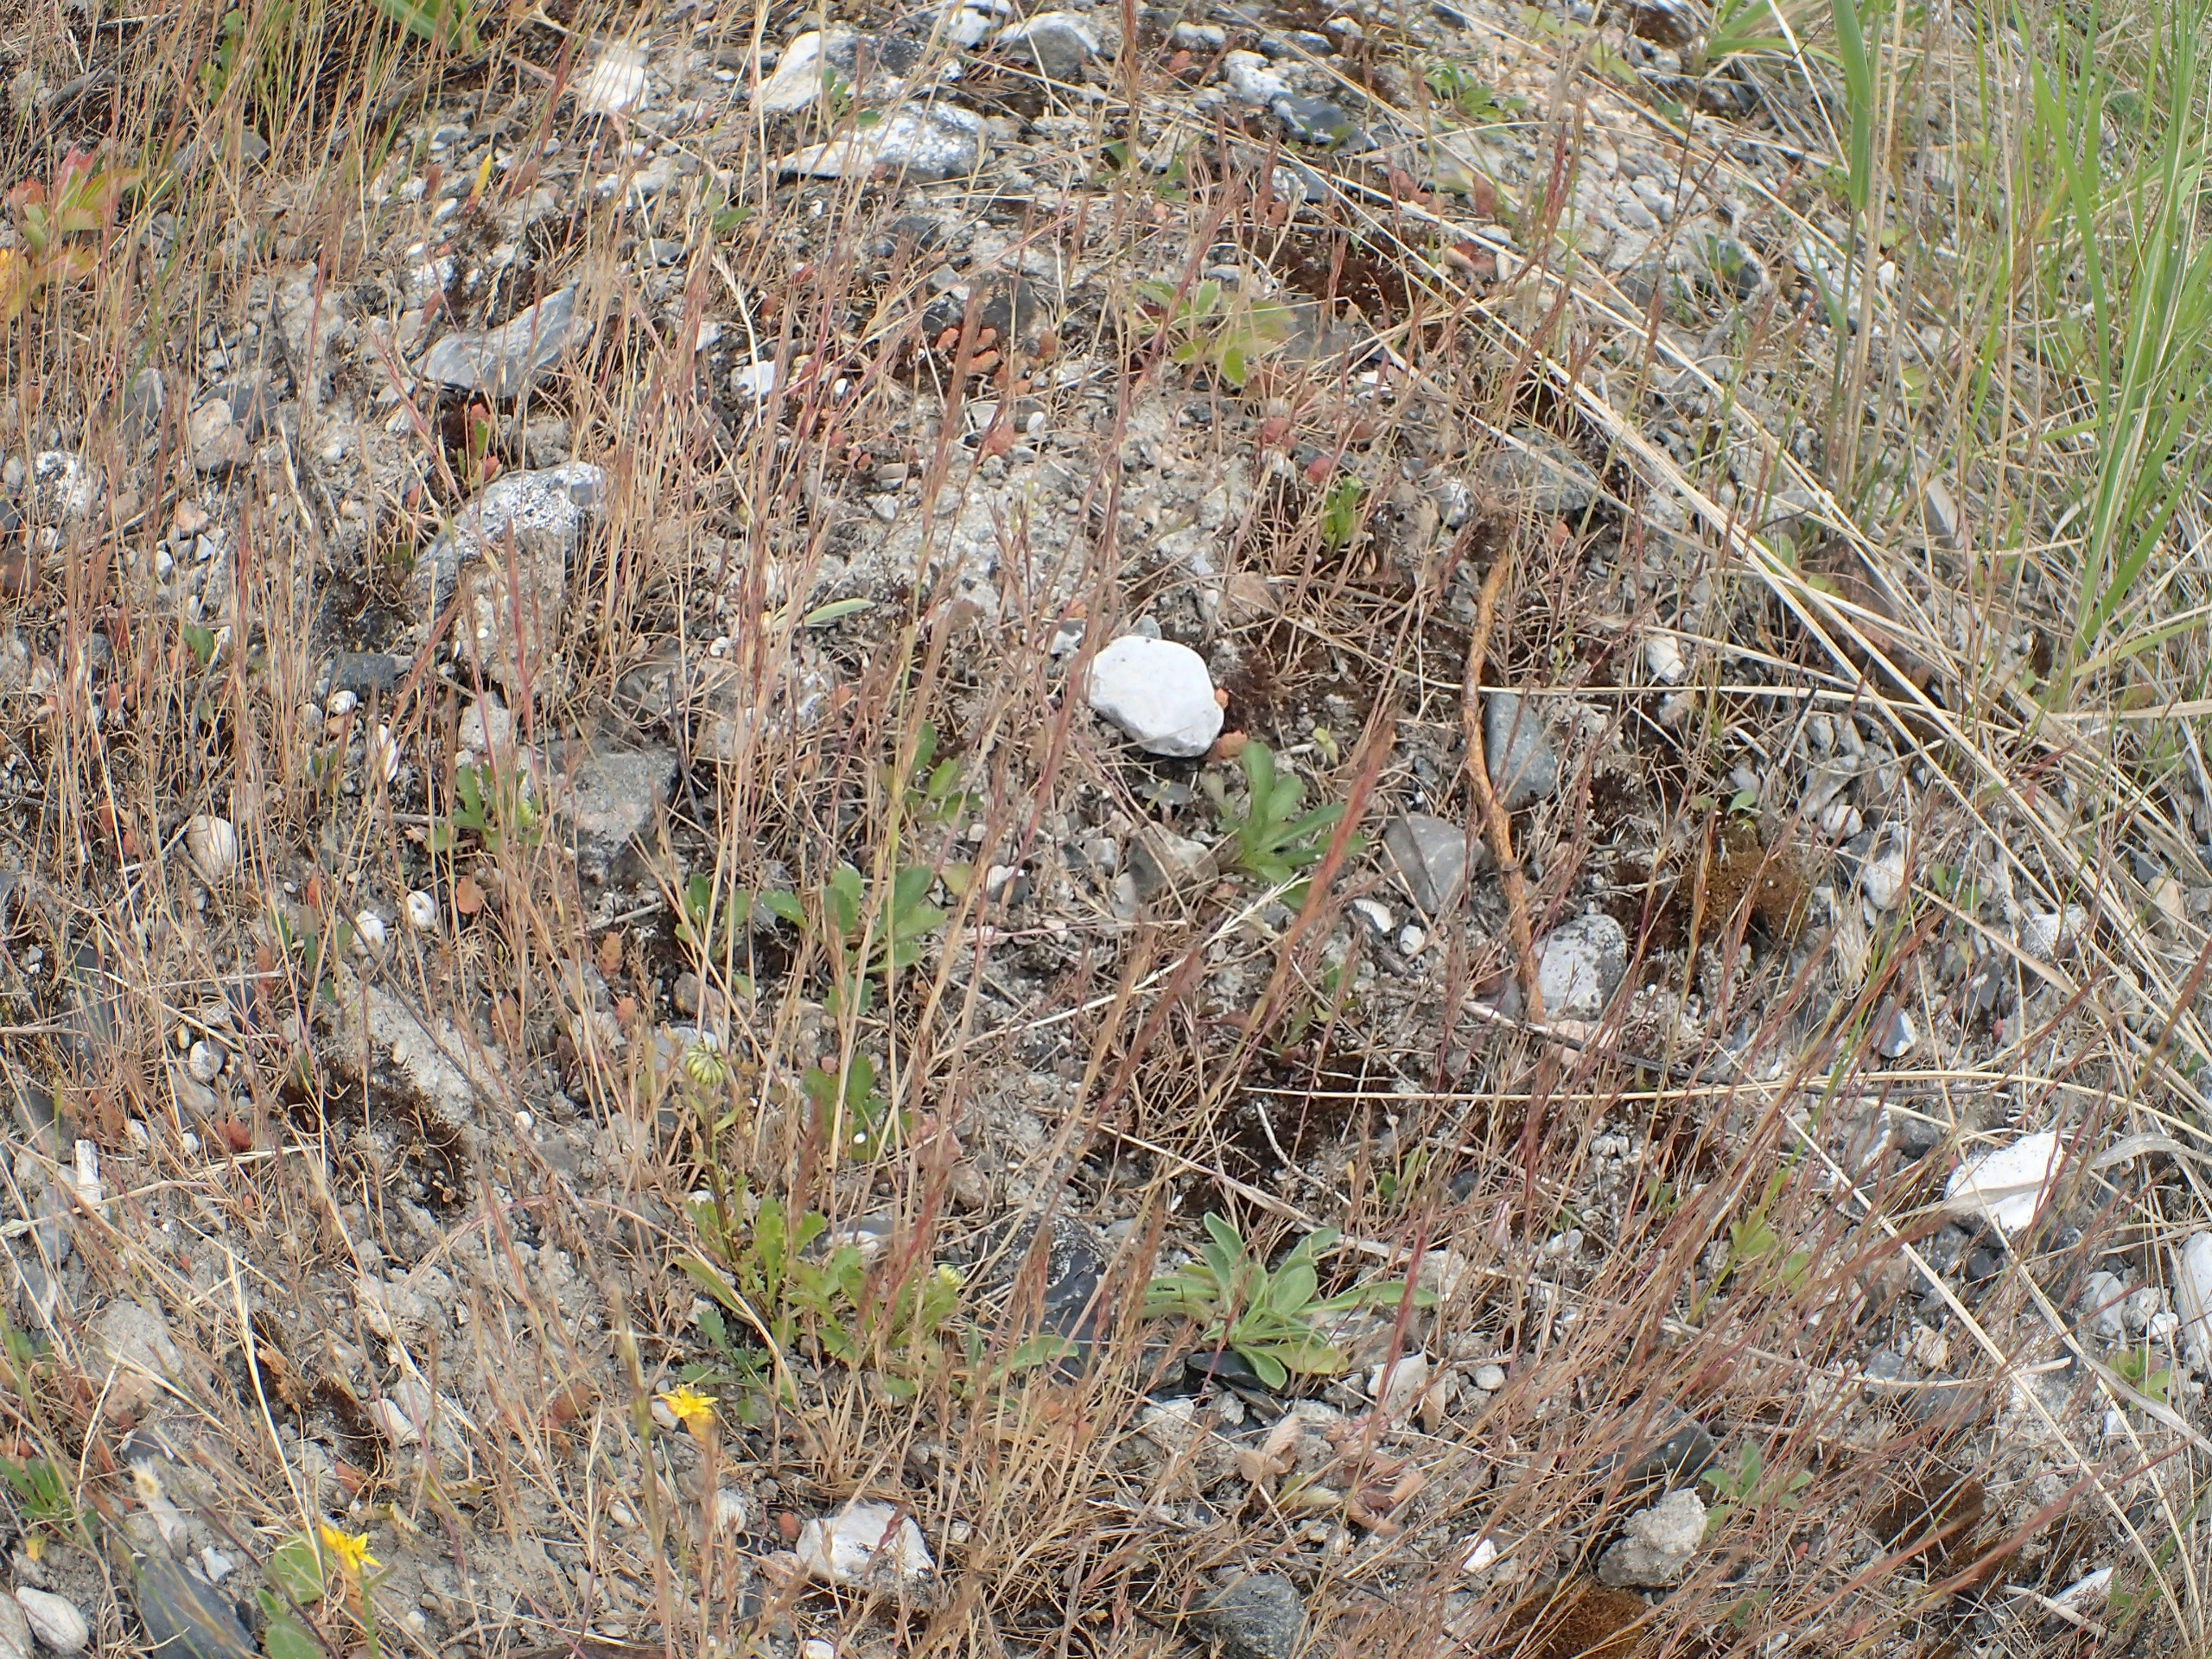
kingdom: Plantae
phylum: Tracheophyta
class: Liliopsida
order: Poales
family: Poaceae
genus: Festuca
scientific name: Festuca myuros
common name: Stor væselhale
